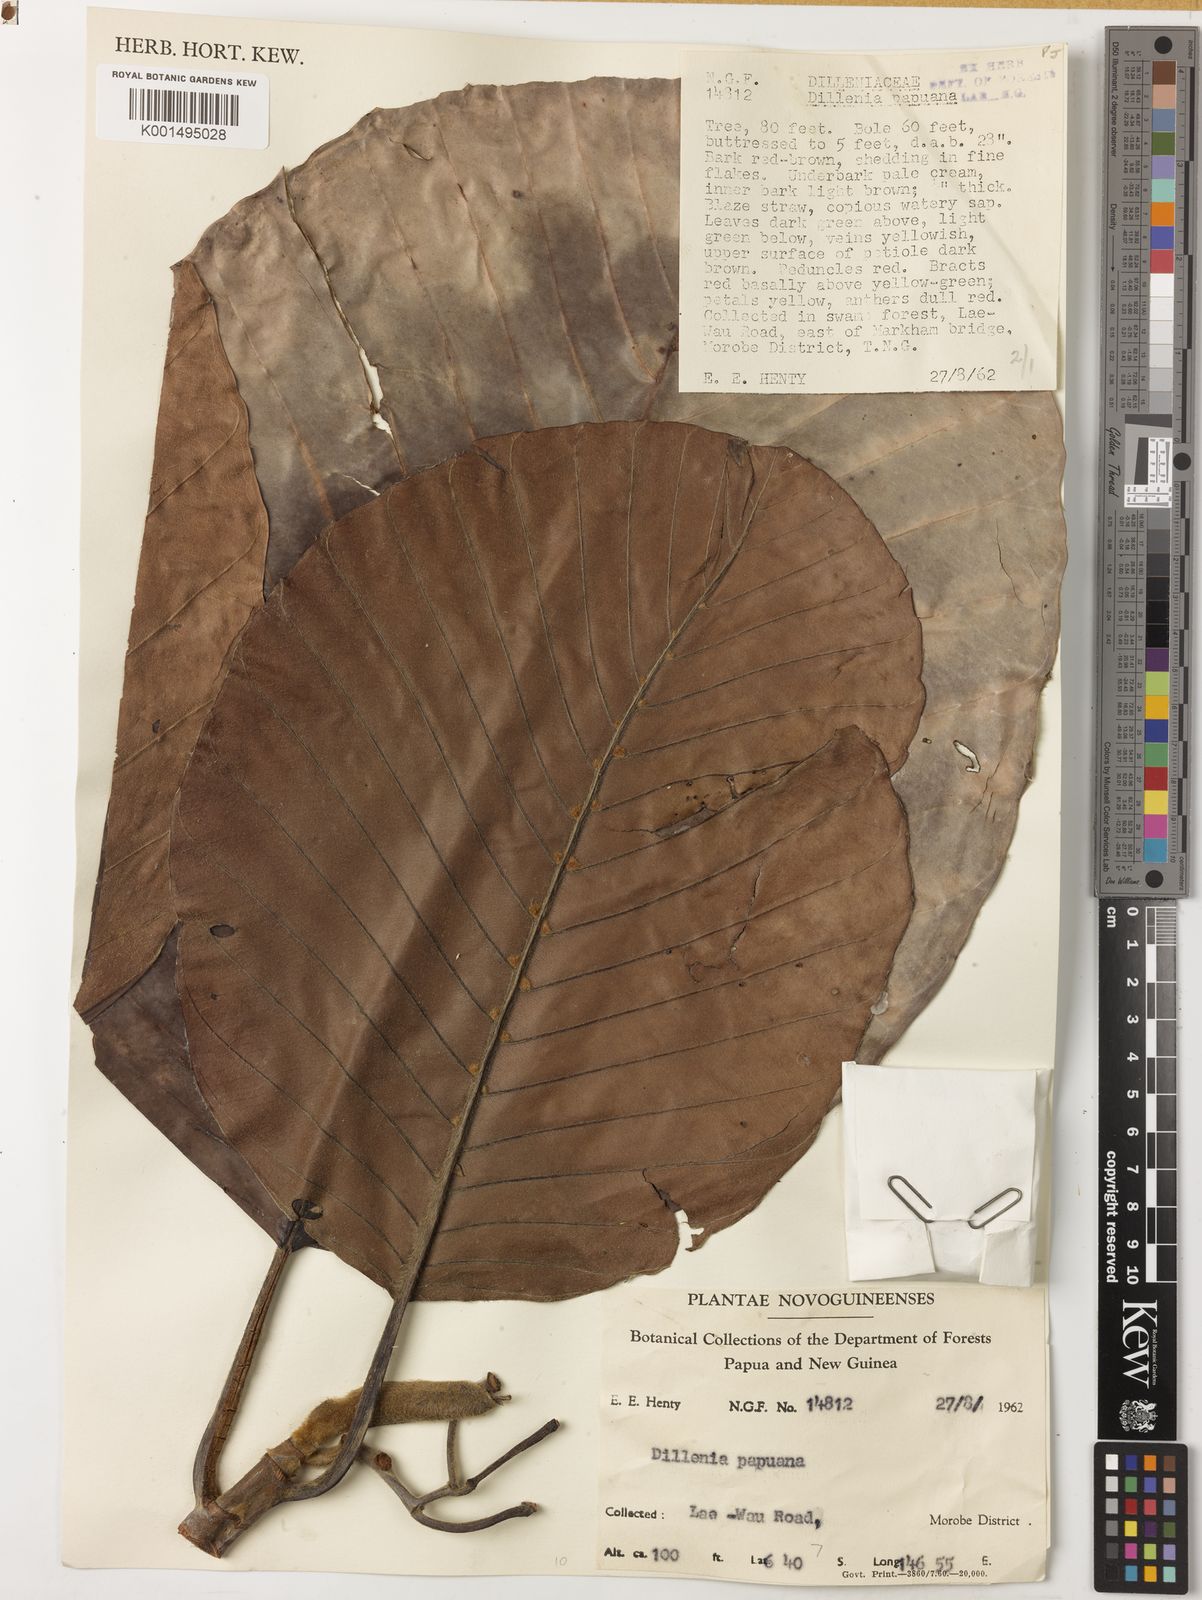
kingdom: Plantae
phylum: Tracheophyta
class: Magnoliopsida
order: Dilleniales
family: Dilleniaceae
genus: Dillenia
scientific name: Dillenia papuana
